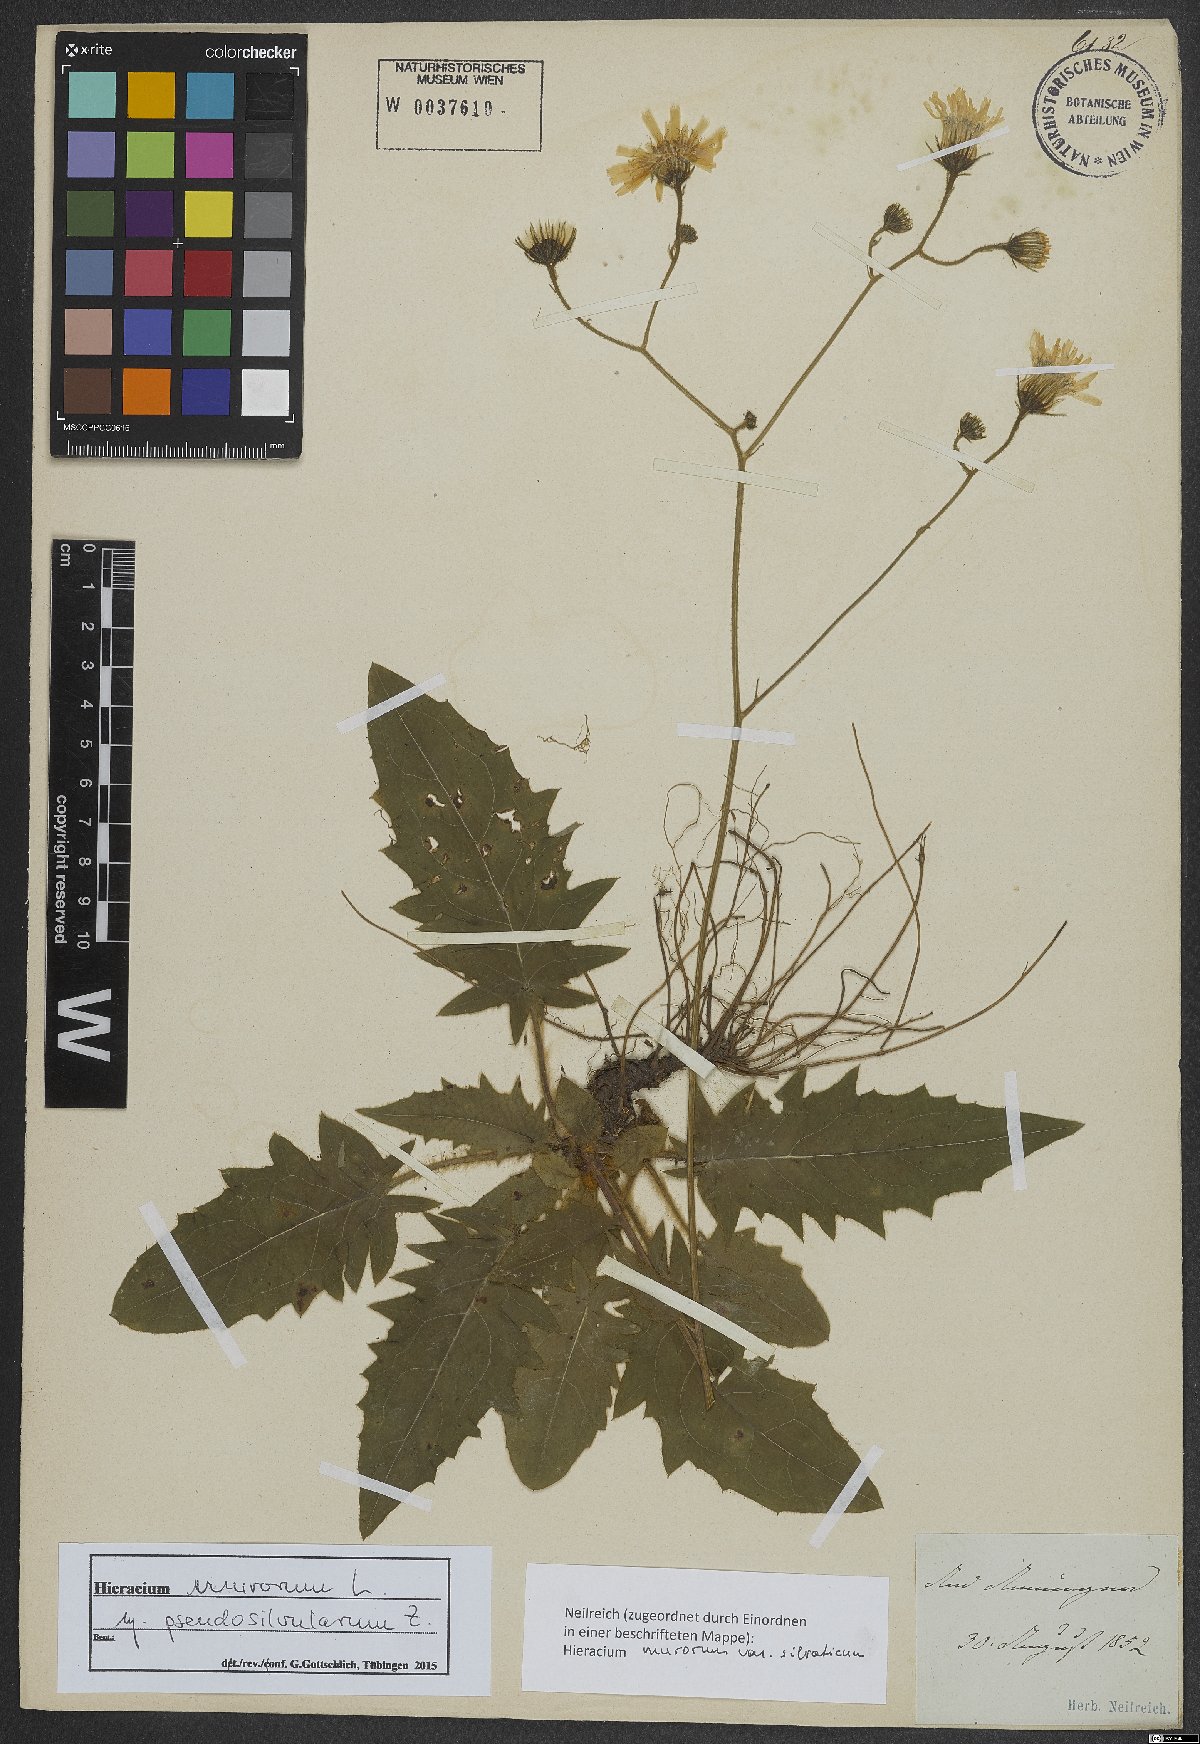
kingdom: Plantae
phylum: Tracheophyta
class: Magnoliopsida
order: Asterales
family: Asteraceae
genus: Hieracium
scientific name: Hieracium murorum
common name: Wall hawkweed
